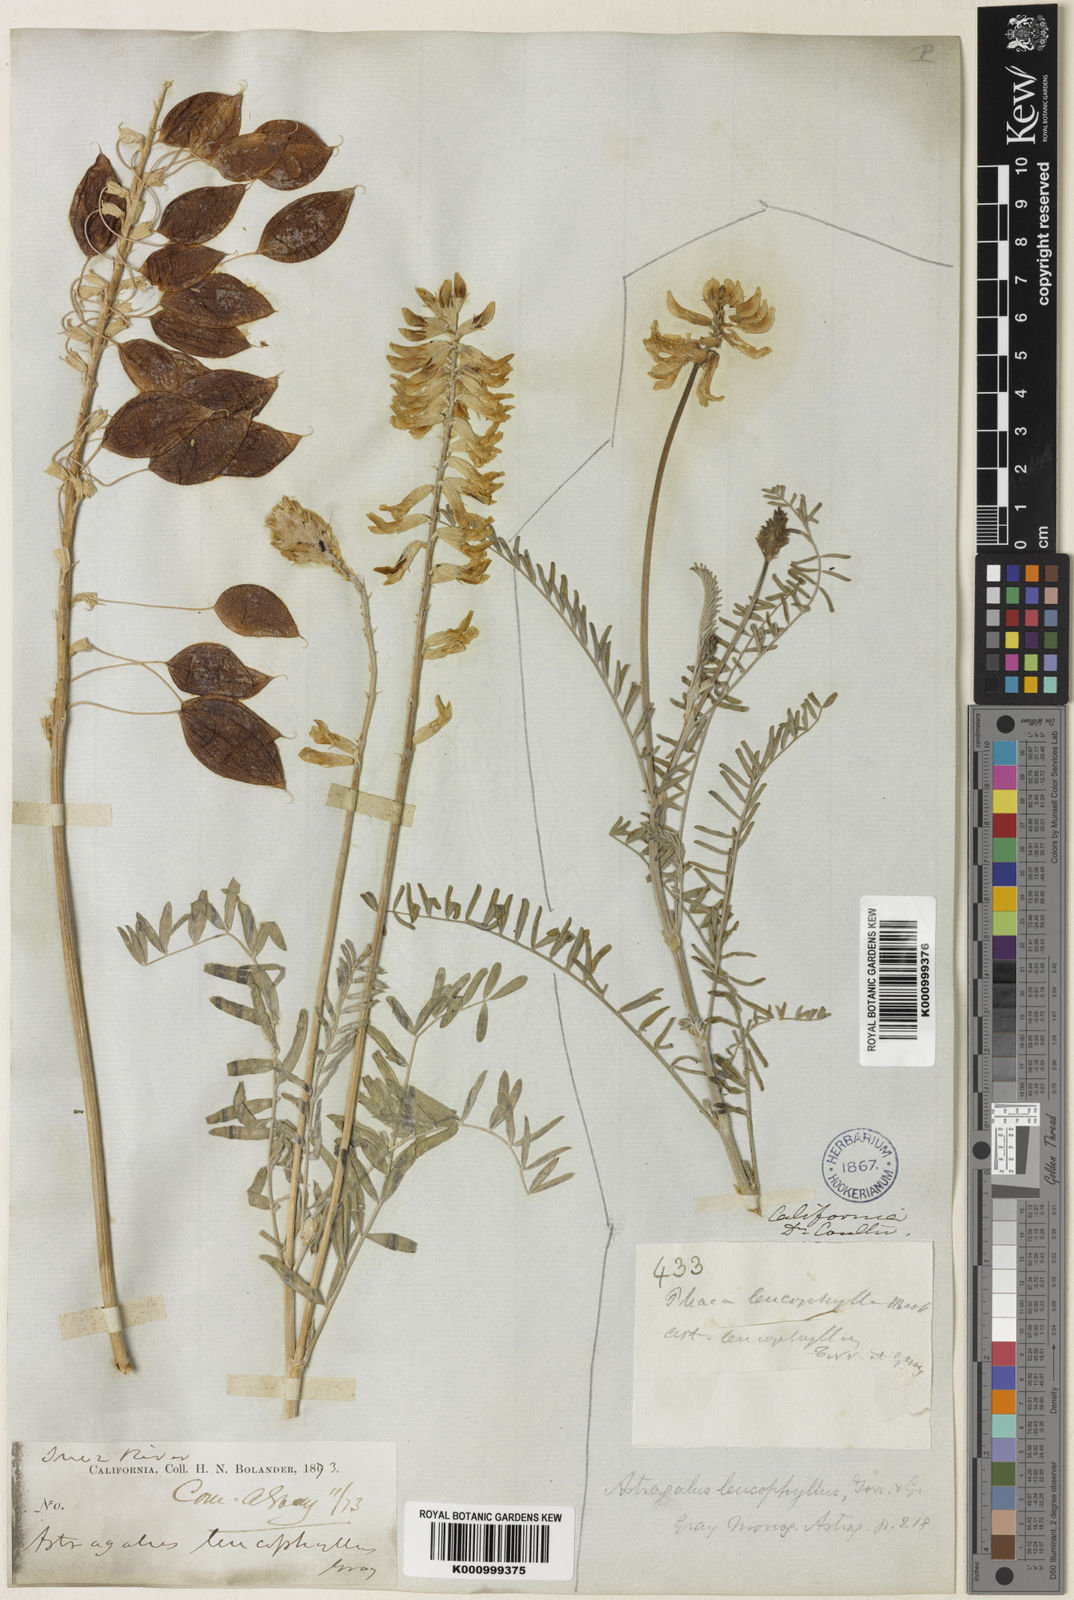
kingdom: Plantae
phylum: Tracheophyta
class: Magnoliopsida
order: Fabales
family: Fabaceae
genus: Astragalus
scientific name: Astragalus asymmetricus
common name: Horse locoweed
